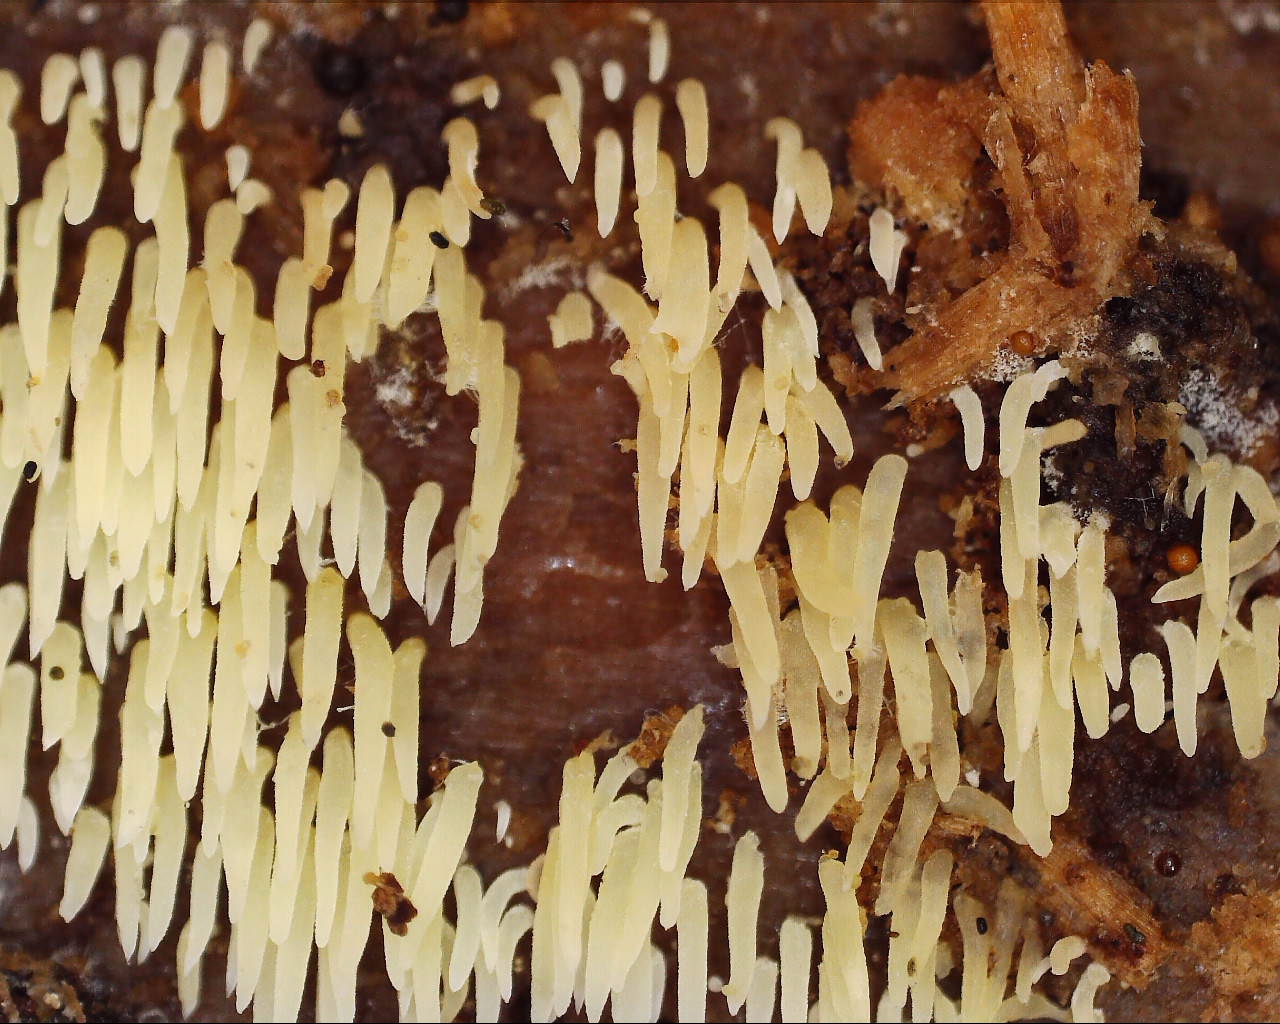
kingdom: Fungi
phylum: Basidiomycota
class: Agaricomycetes
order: Agaricales
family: Clavariaceae
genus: Mucronella
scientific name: Mucronella flava
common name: gul hængepig
